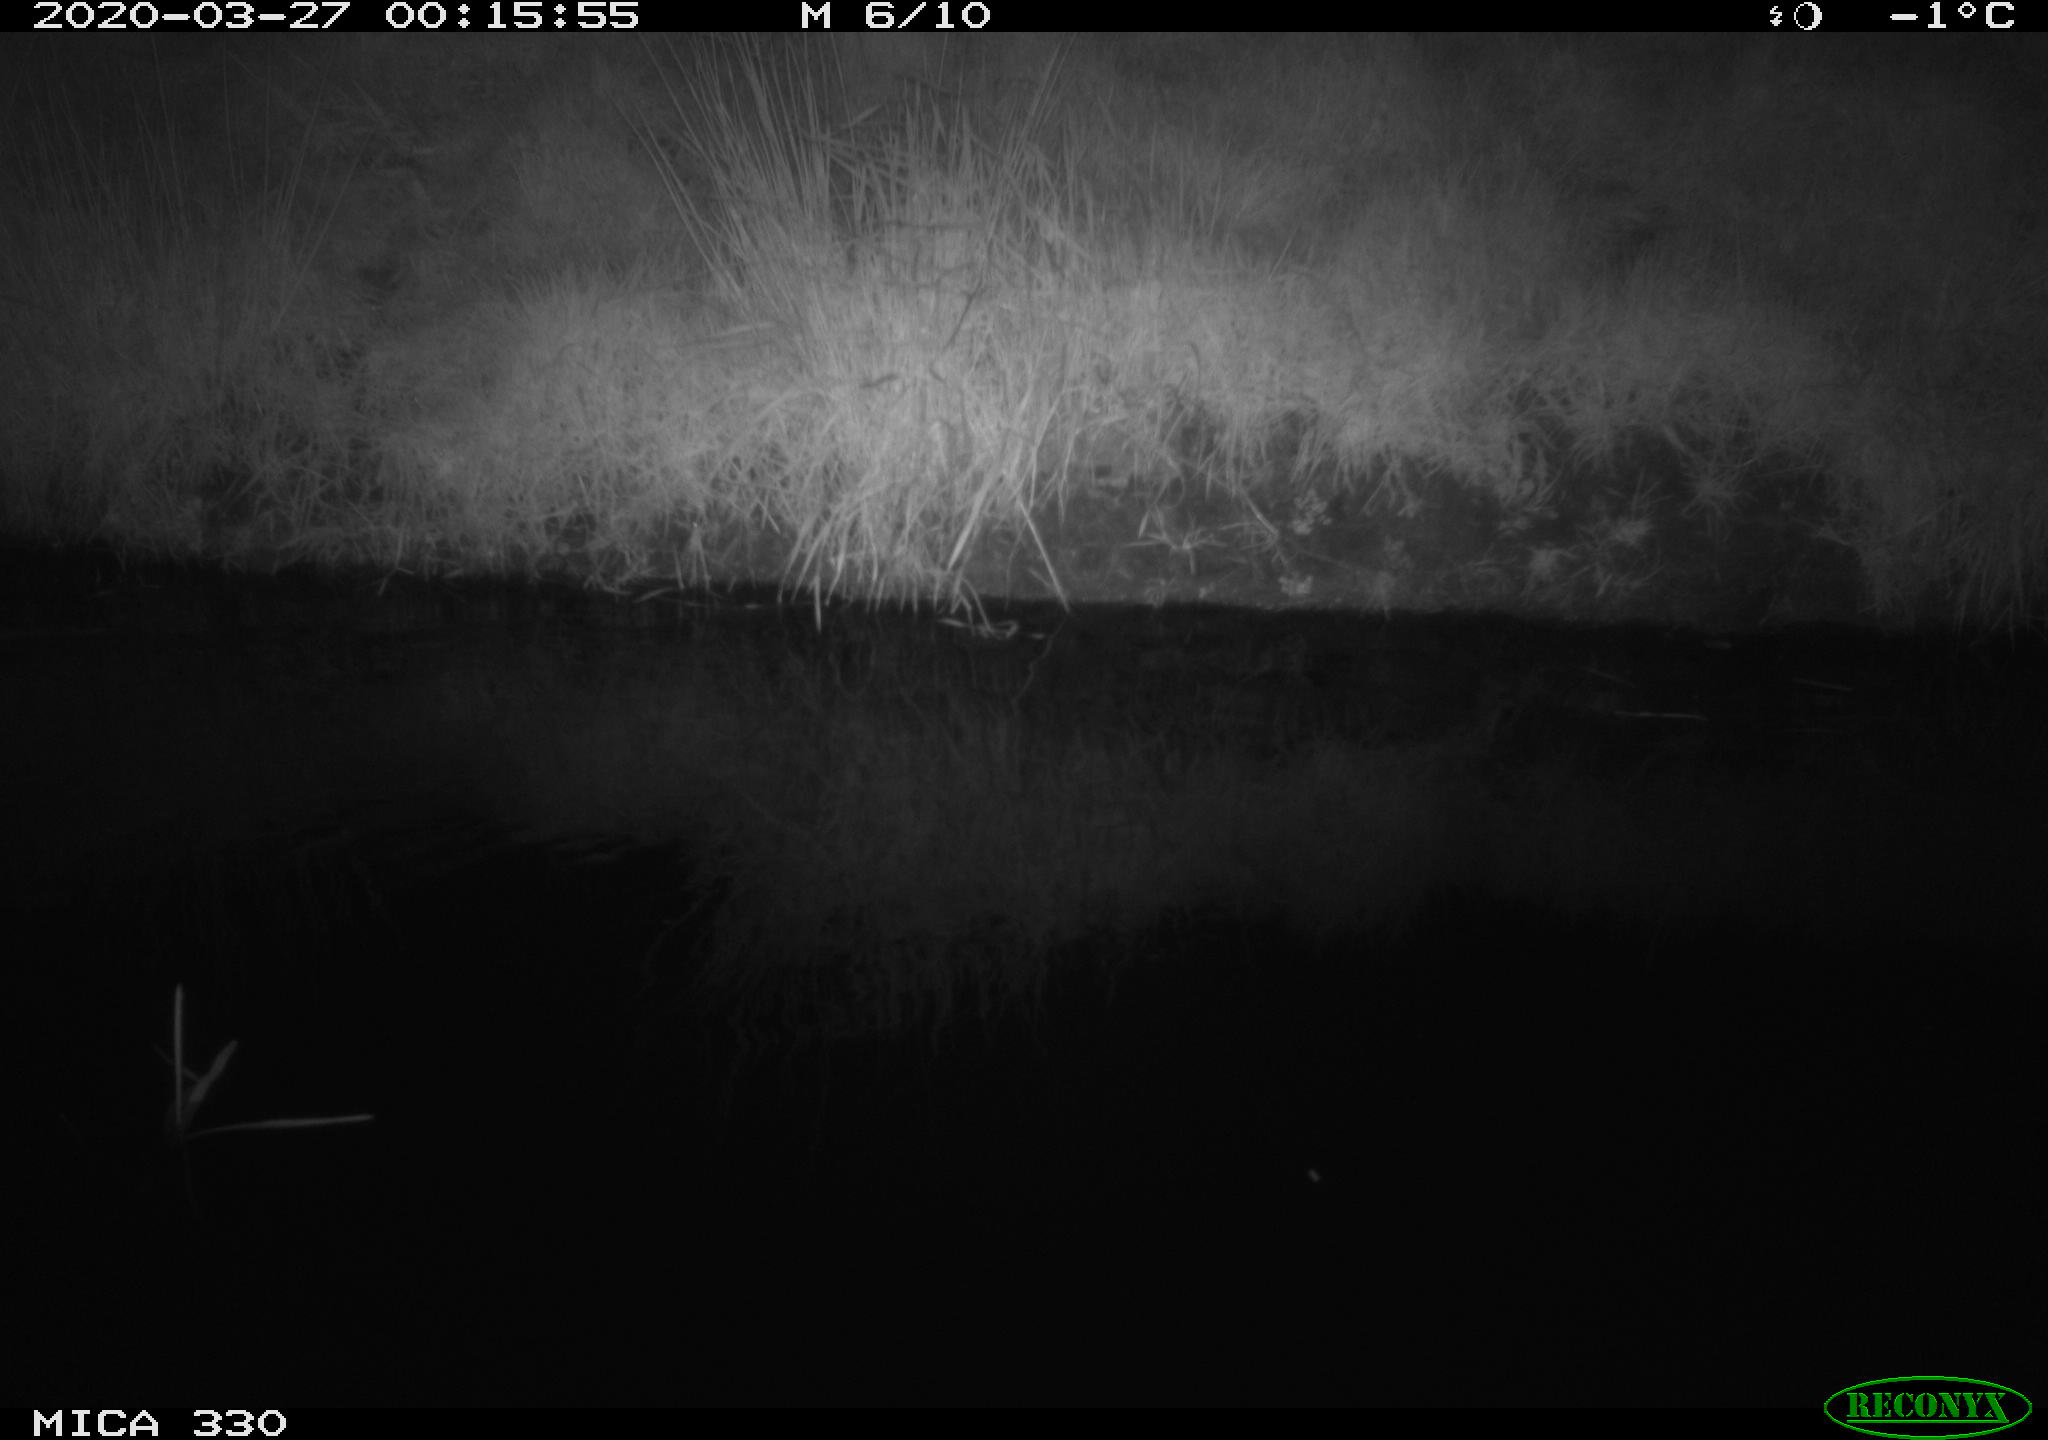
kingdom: Animalia
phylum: Chordata
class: Aves
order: Anseriformes
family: Anatidae
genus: Anas
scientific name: Anas platyrhynchos
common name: Mallard
